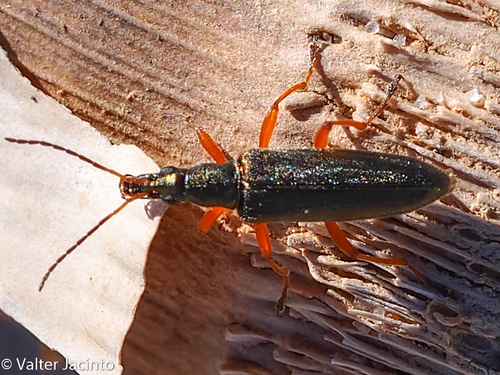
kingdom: Animalia
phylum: Chordata
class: Squamata
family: Leptotyphlopidae
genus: Namibiana
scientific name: Namibiana rostrata
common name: Bocage's blind snake
